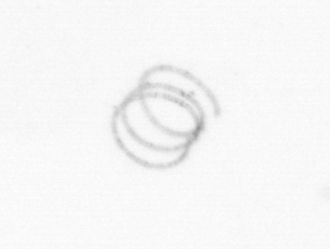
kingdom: Chromista
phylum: Ochrophyta
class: Bacillariophyceae
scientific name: Bacillariophyceae
